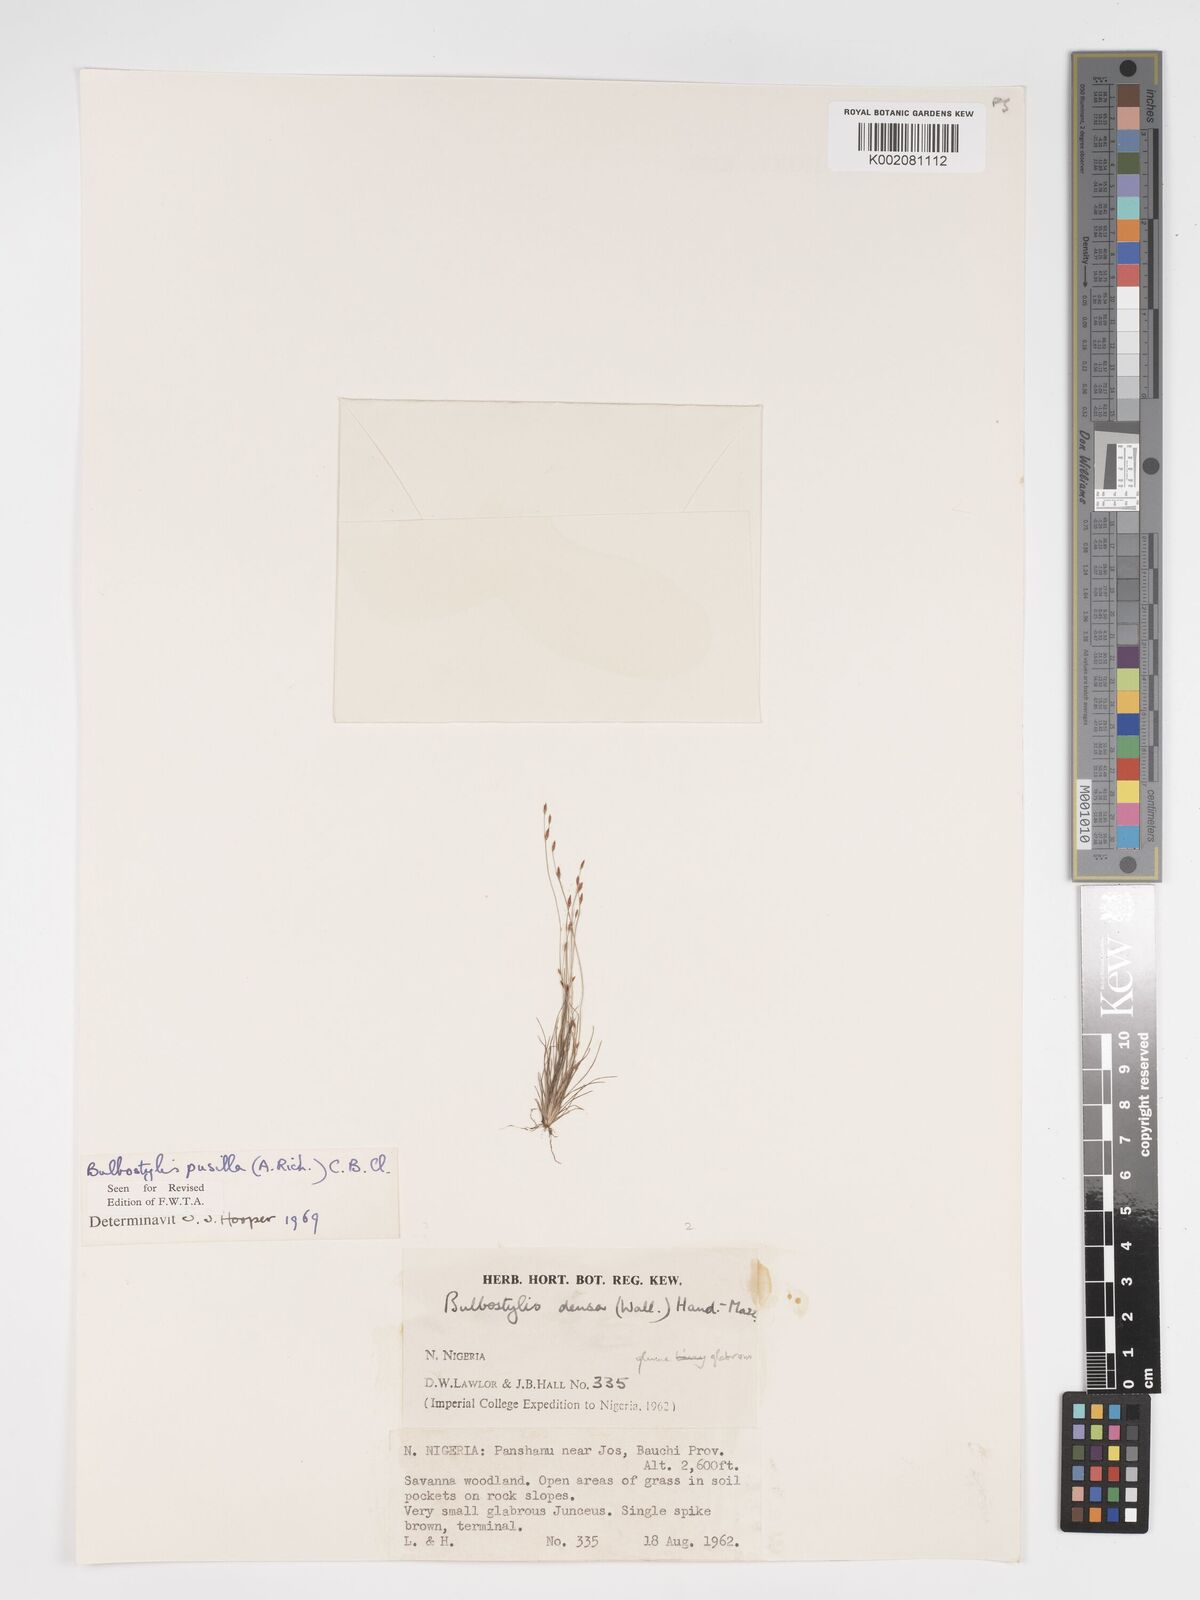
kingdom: Plantae
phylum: Tracheophyta
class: Liliopsida
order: Poales
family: Cyperaceae
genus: Bulbostylis
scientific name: Bulbostylis pusilla
